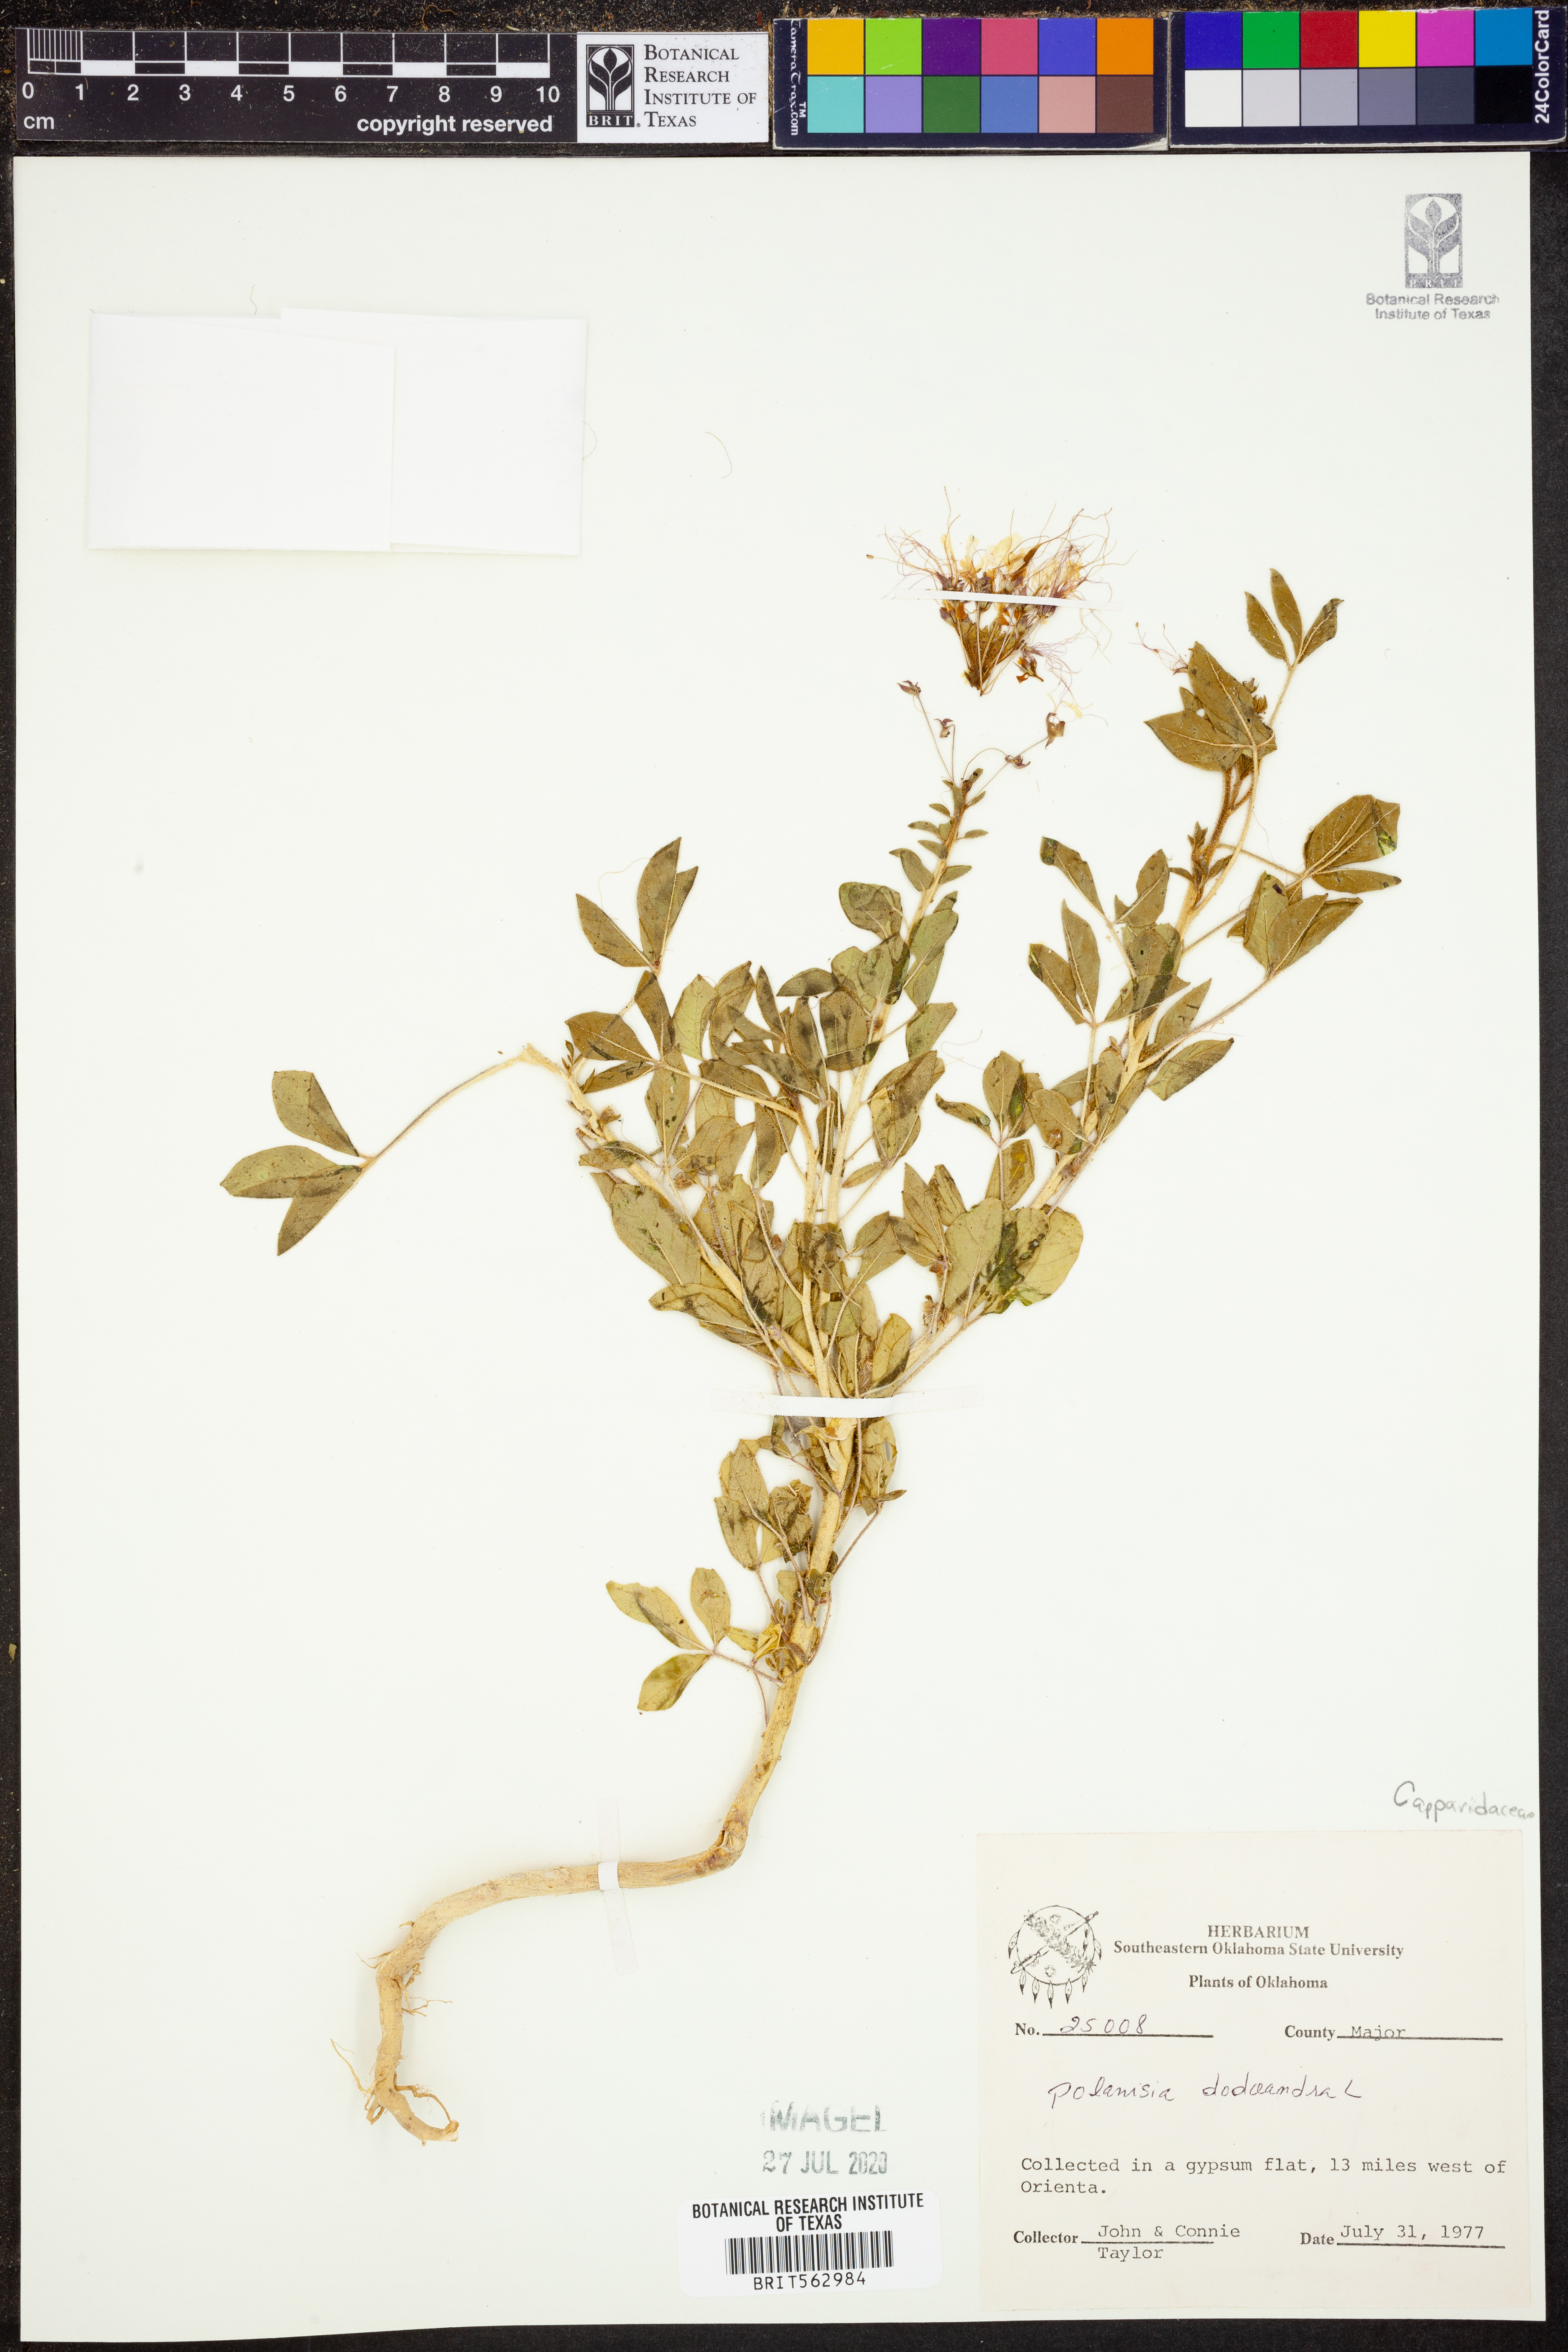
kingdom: Plantae
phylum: Tracheophyta
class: Magnoliopsida
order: Brassicales
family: Cleomaceae
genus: Polanisia
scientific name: Polanisia dodecandra
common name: Clammyweed
